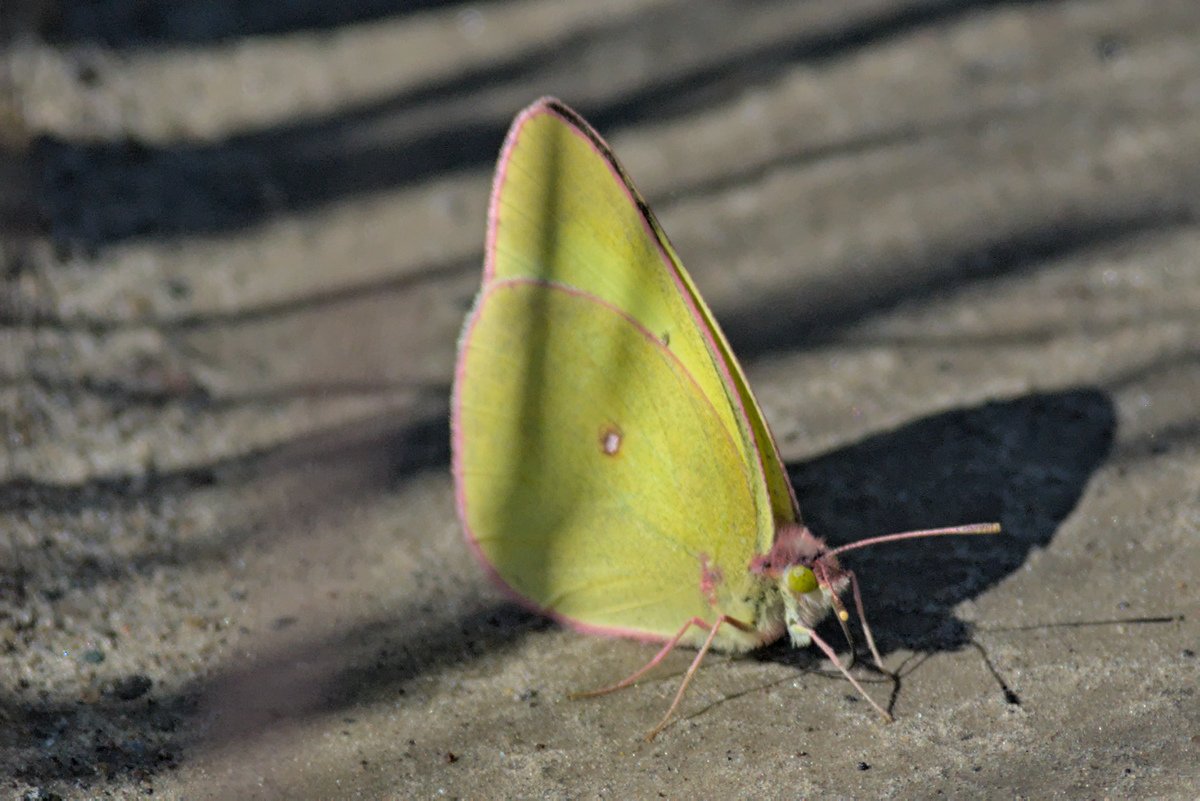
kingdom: Animalia
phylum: Arthropoda
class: Insecta
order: Lepidoptera
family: Pieridae
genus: Colias
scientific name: Colias interior
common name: Pink-edged Sulphur
